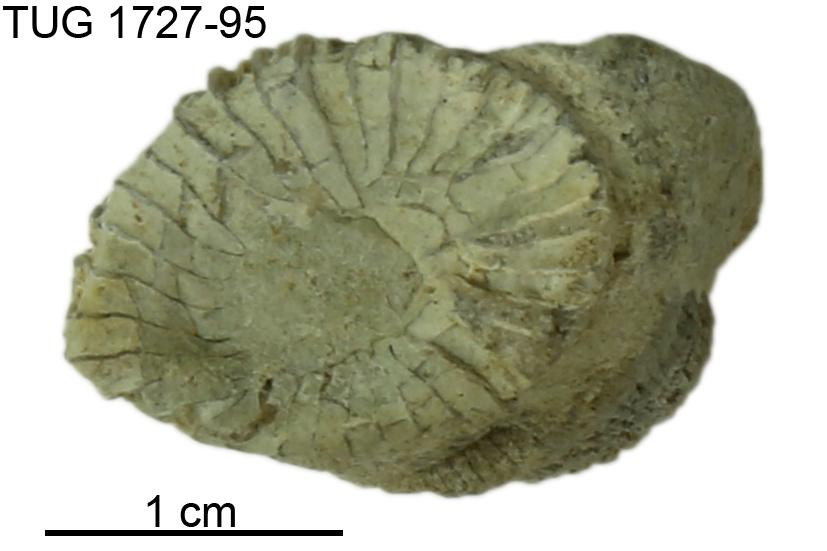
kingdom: Animalia
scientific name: Animalia
